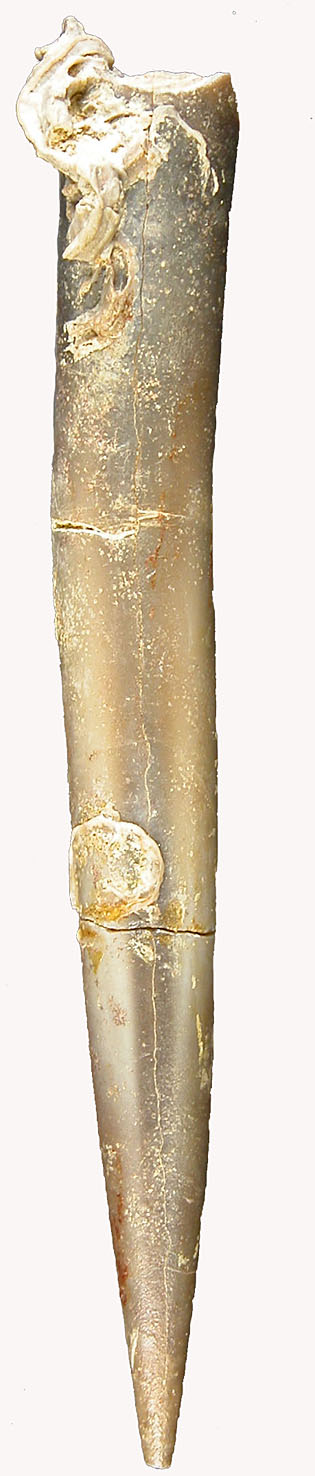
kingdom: Animalia
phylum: Mollusca
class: Cephalopoda
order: Belemnitida
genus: Eocylindroteuthis
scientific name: Eocylindroteuthis
